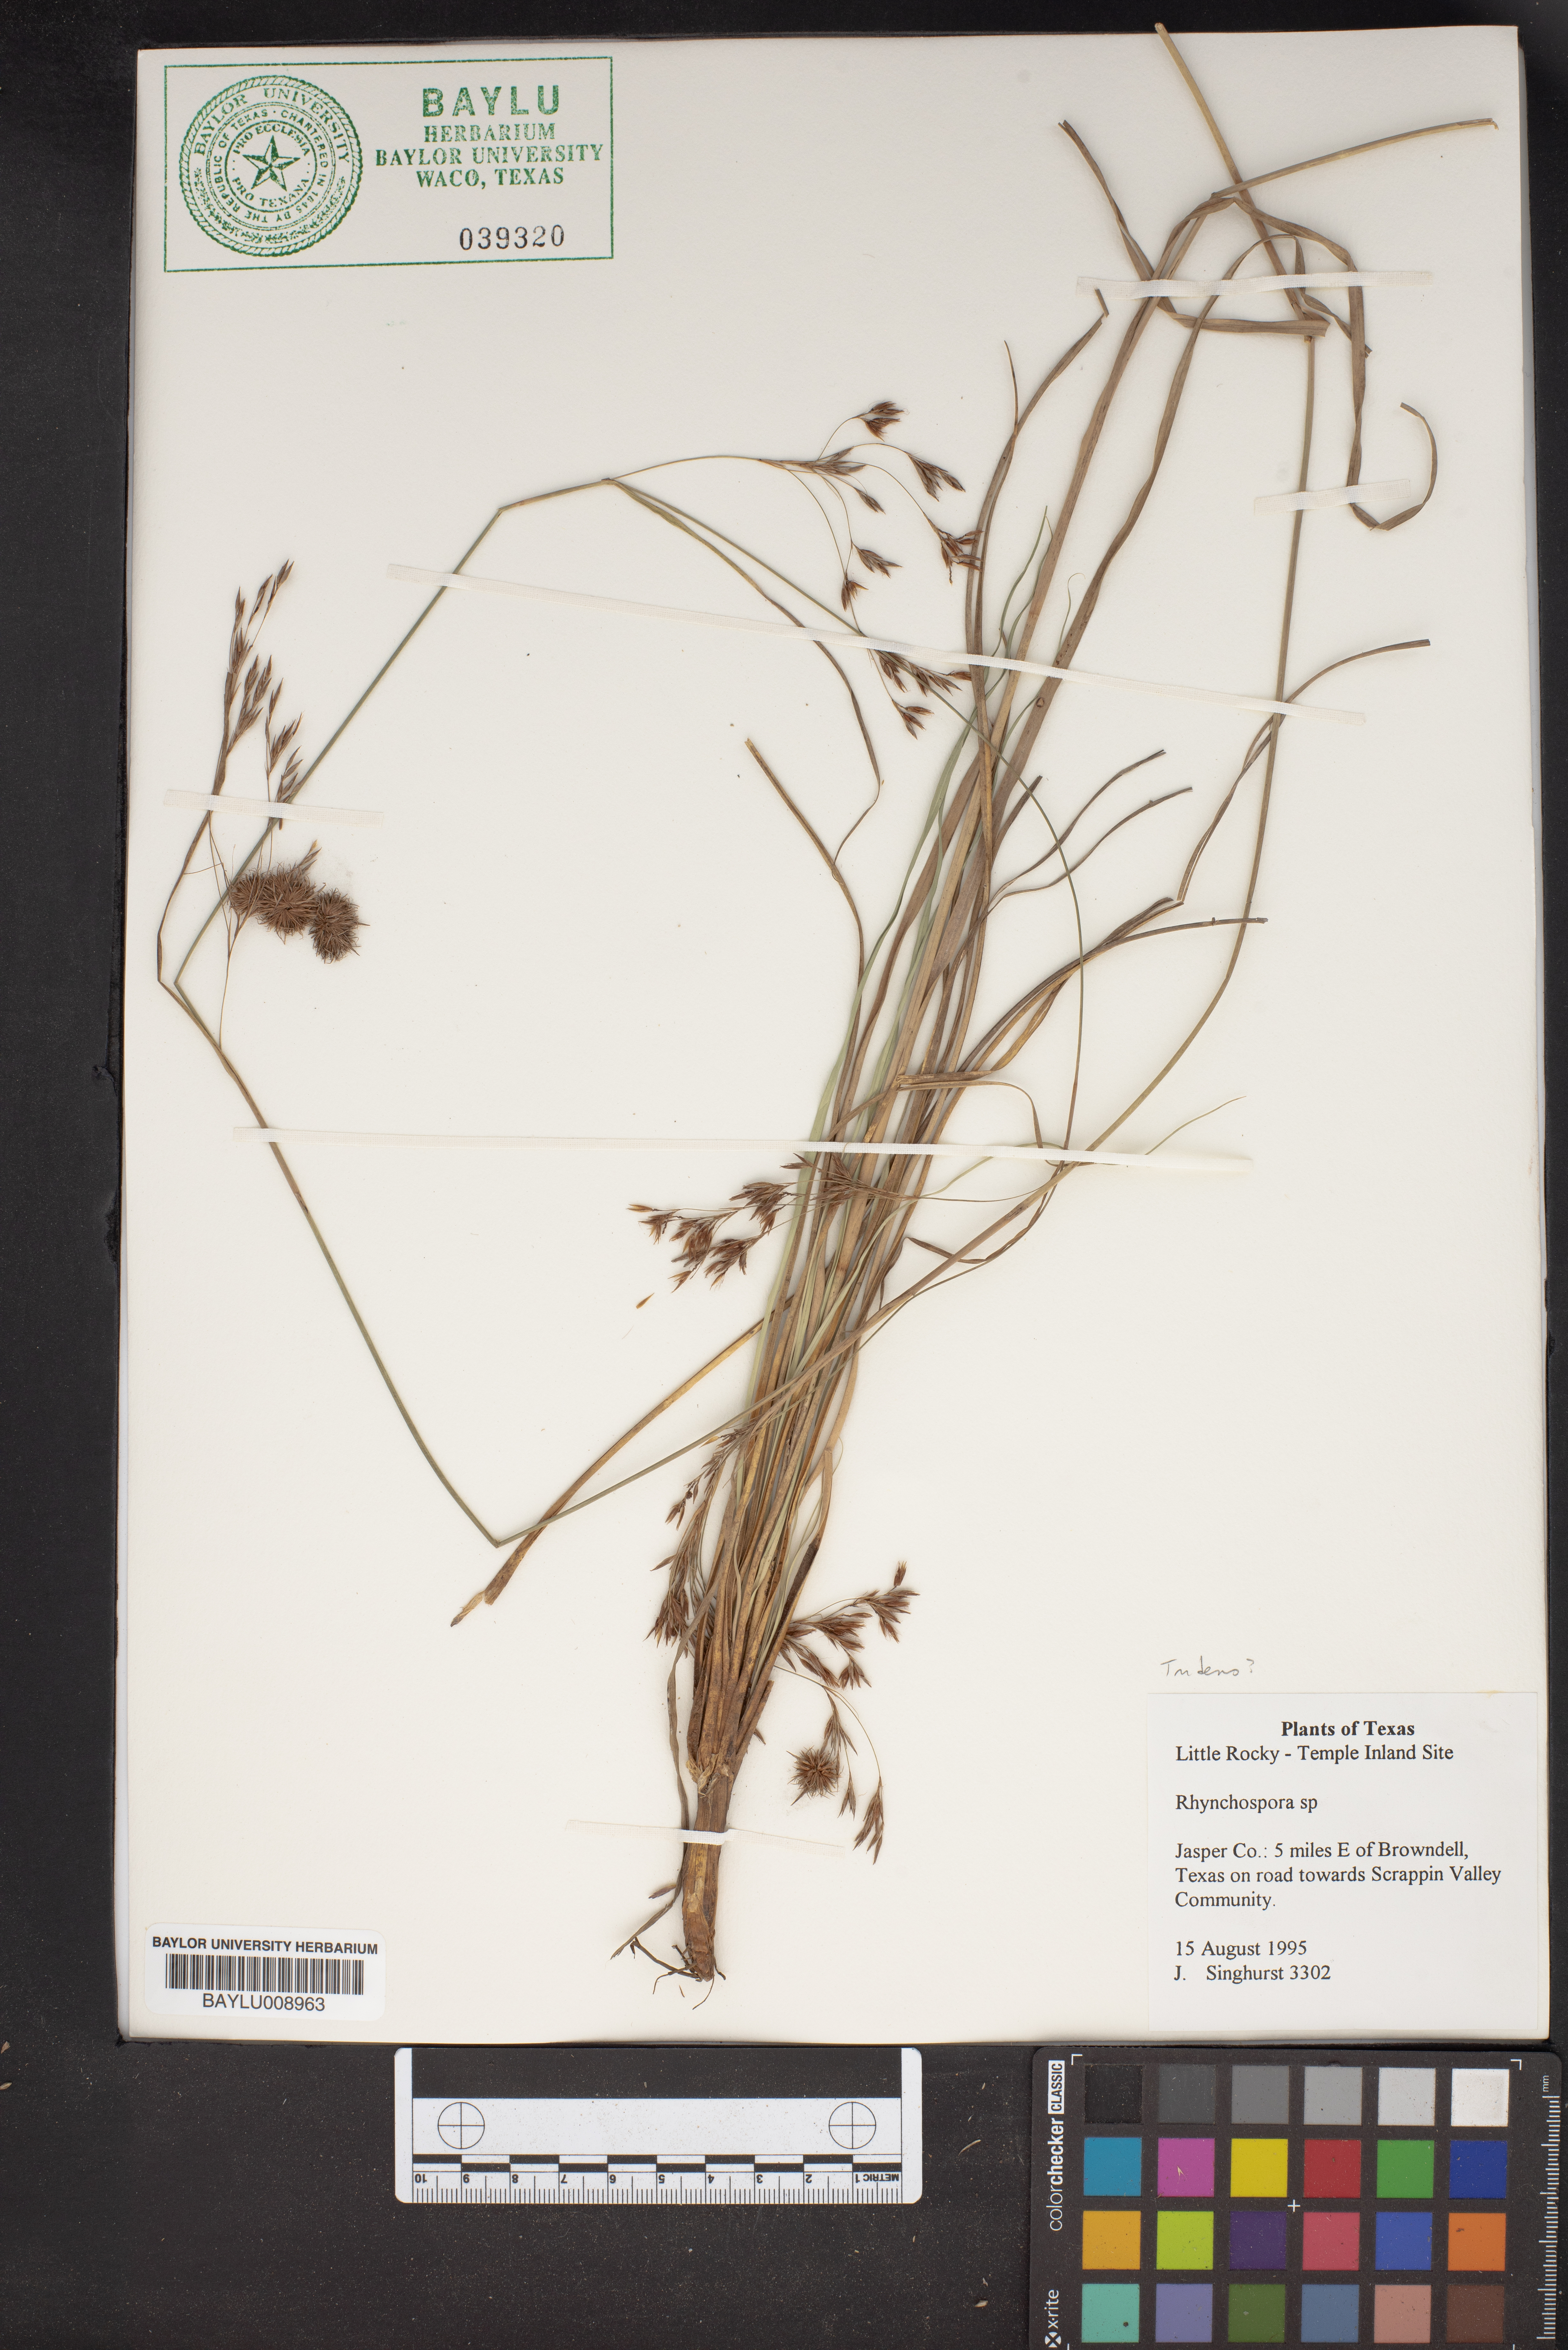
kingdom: Plantae
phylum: Tracheophyta
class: Liliopsida
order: Poales
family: Cyperaceae
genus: Rhynchospora
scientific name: Rhynchospora
